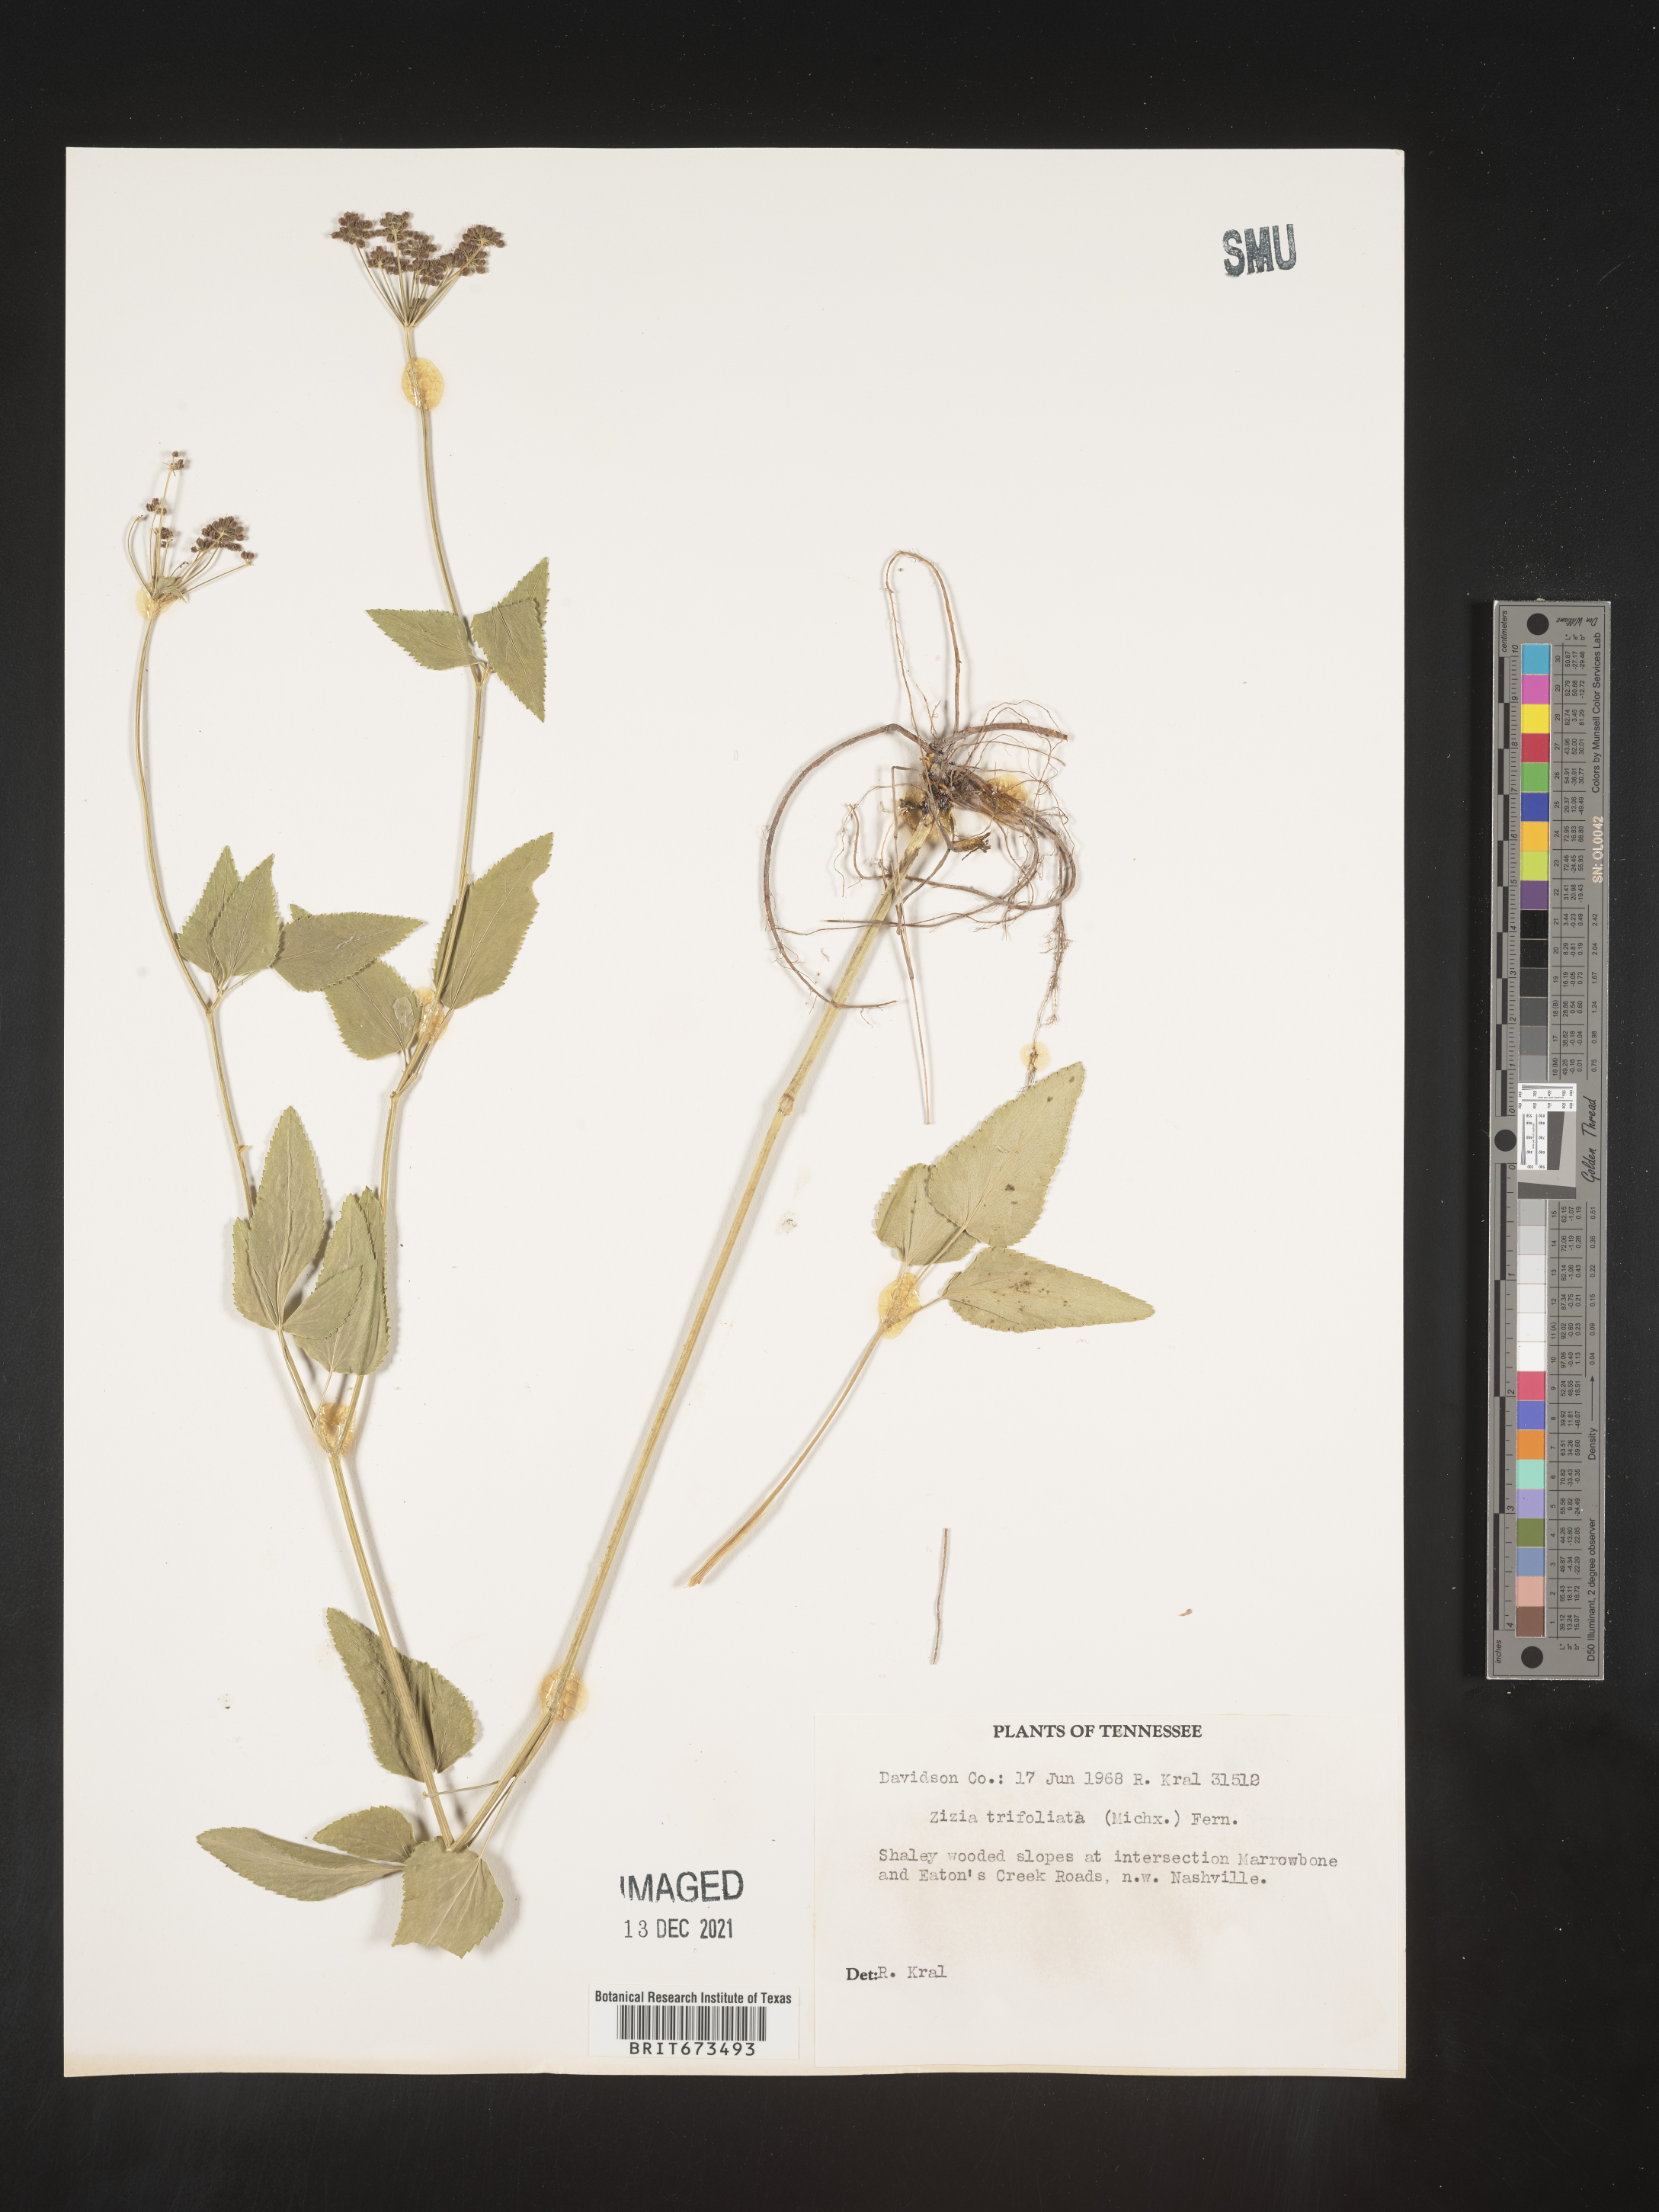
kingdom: Plantae
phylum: Tracheophyta
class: Magnoliopsida
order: Apiales
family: Apiaceae
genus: Zizia
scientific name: Zizia trifoliata
